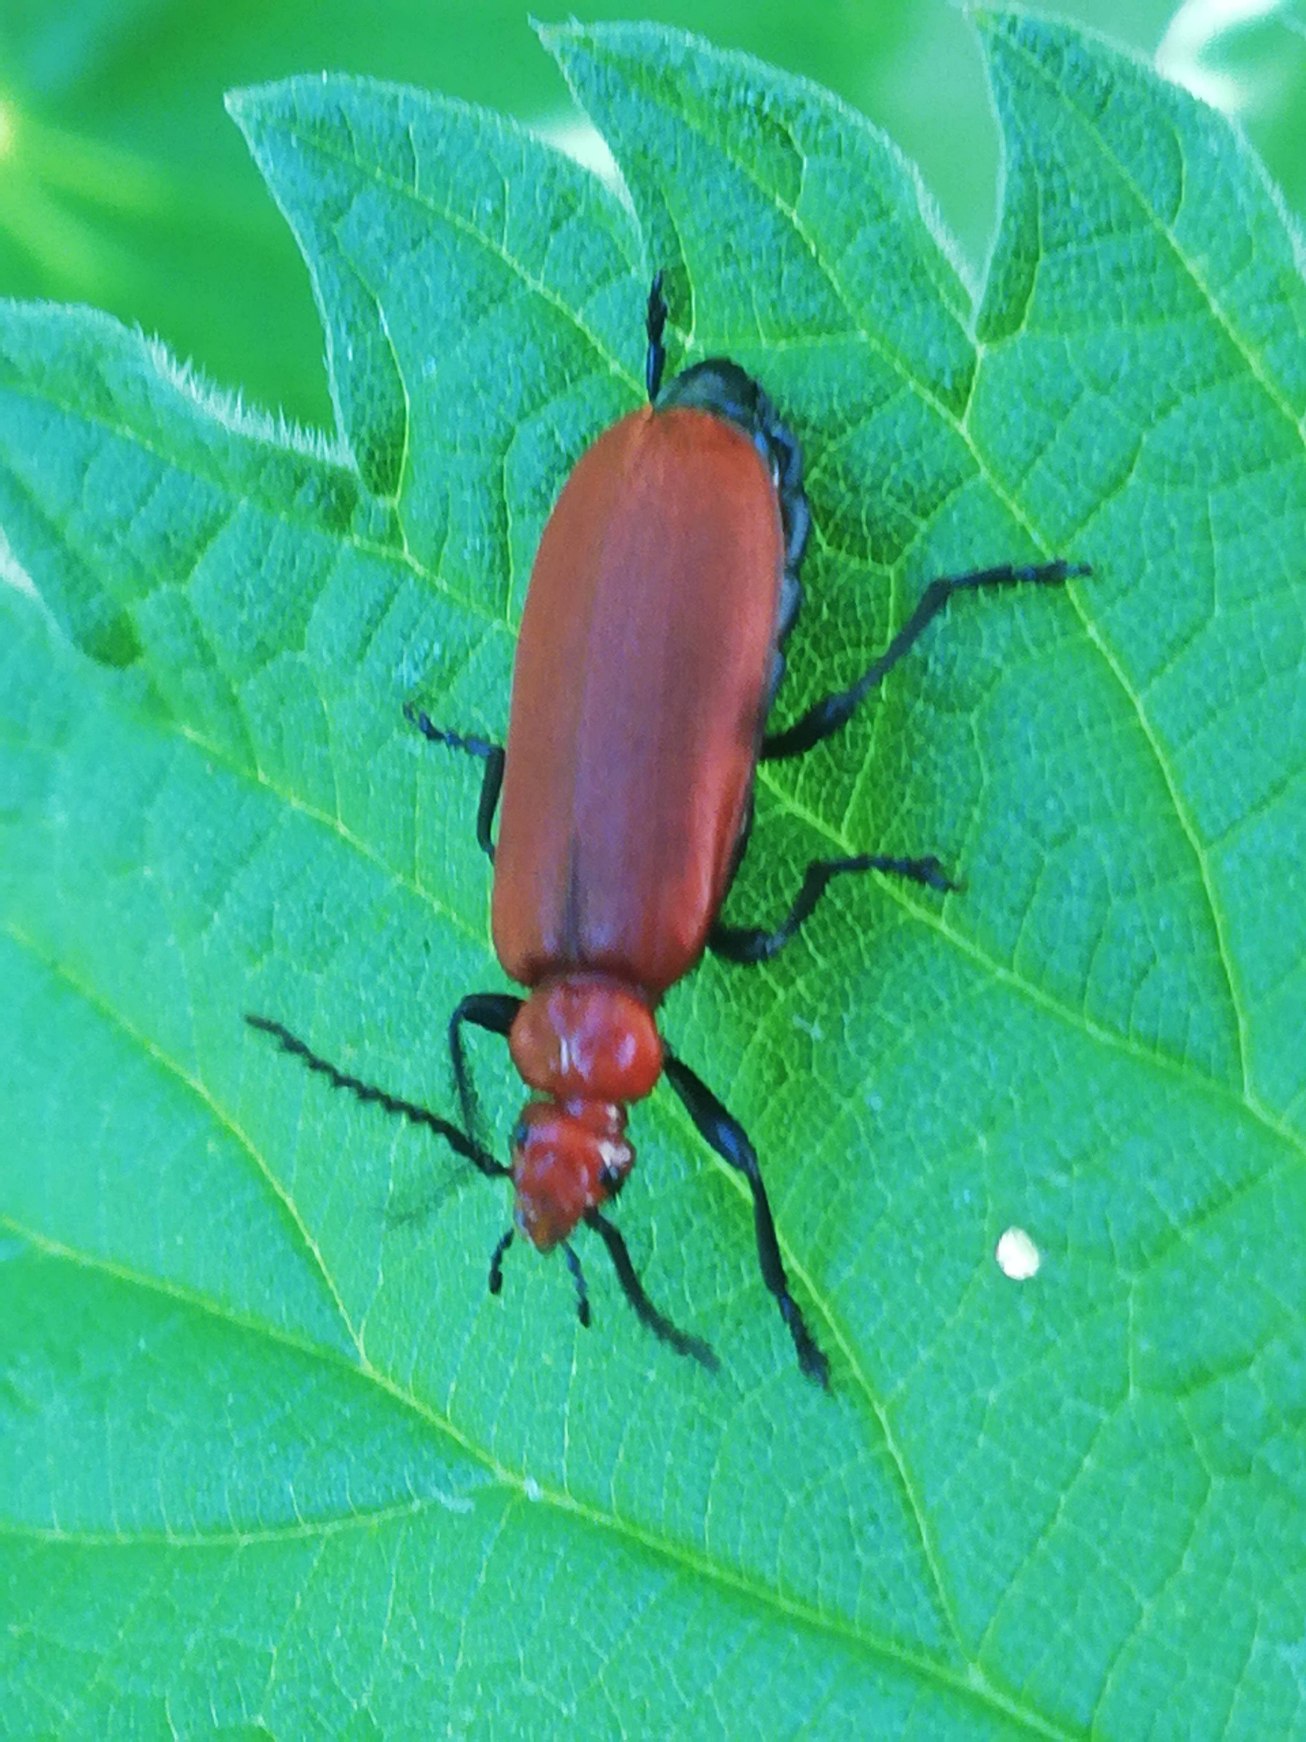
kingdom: Animalia
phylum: Arthropoda
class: Insecta
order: Coleoptera
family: Pyrochroidae
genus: Pyrochroa
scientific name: Pyrochroa serraticornis
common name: Rødhovedet kardinalbille
